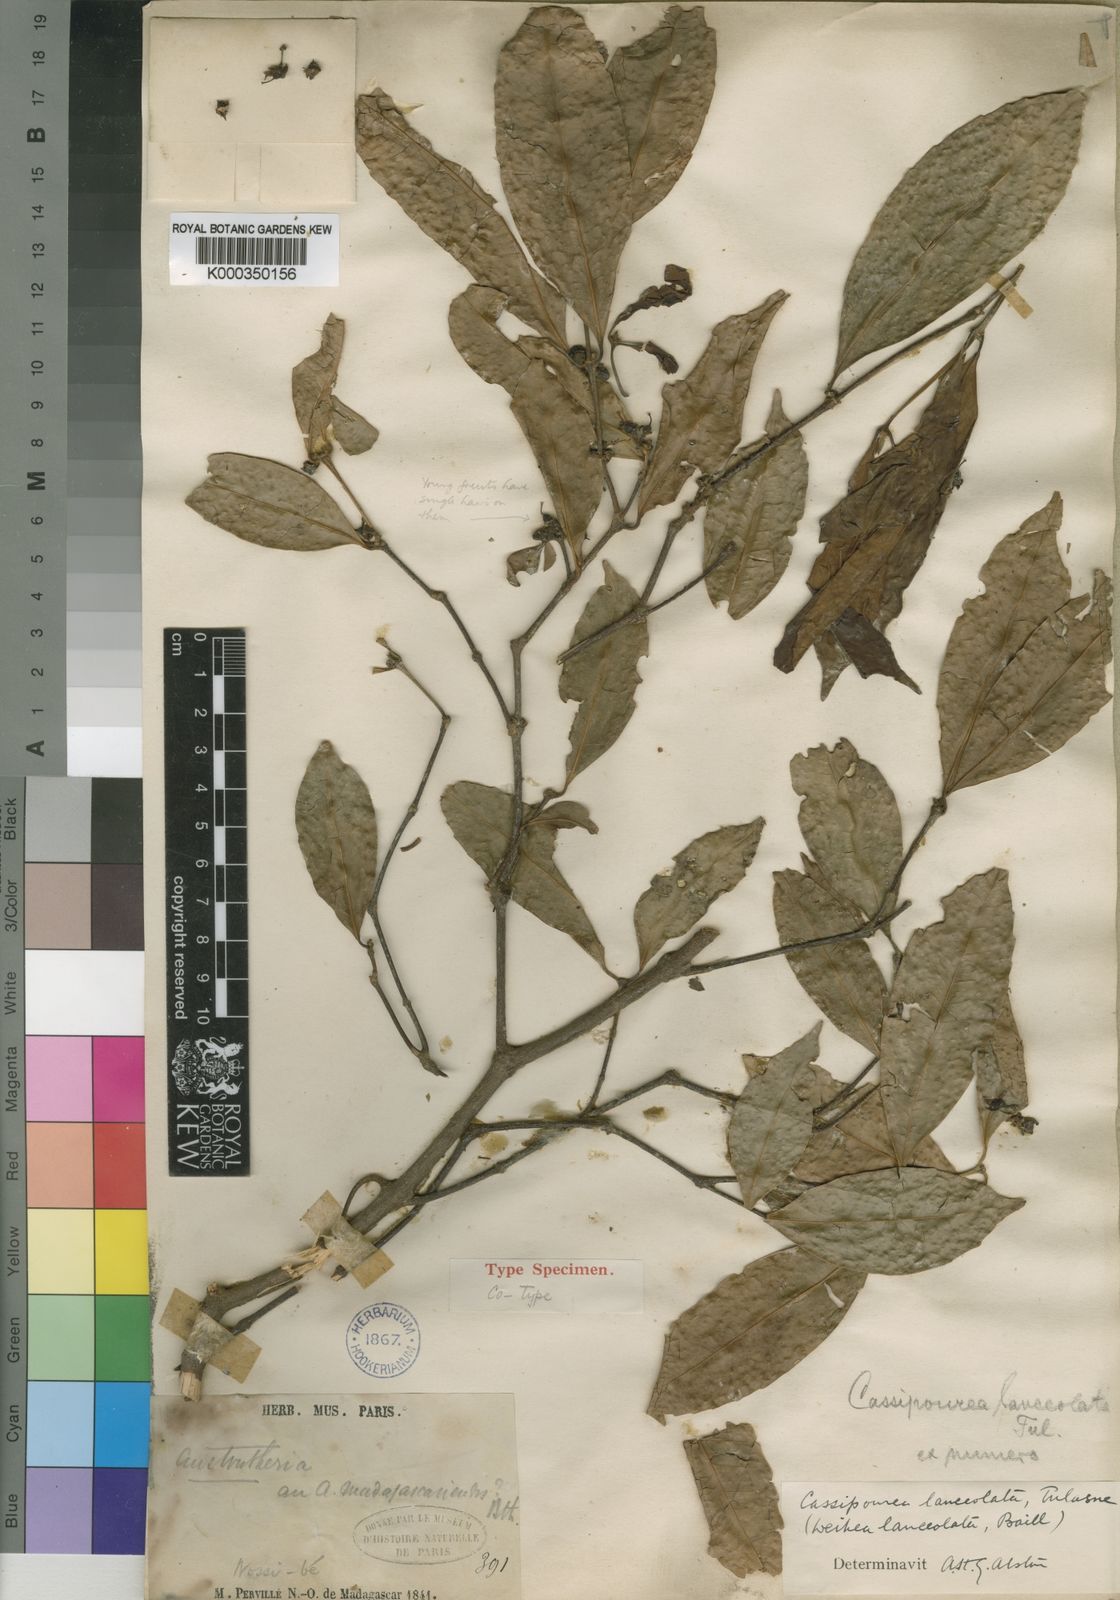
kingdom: Plantae
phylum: Tracheophyta
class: Magnoliopsida
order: Malpighiales
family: Rhizophoraceae
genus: Cassipourea
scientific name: Cassipourea lanceolata
